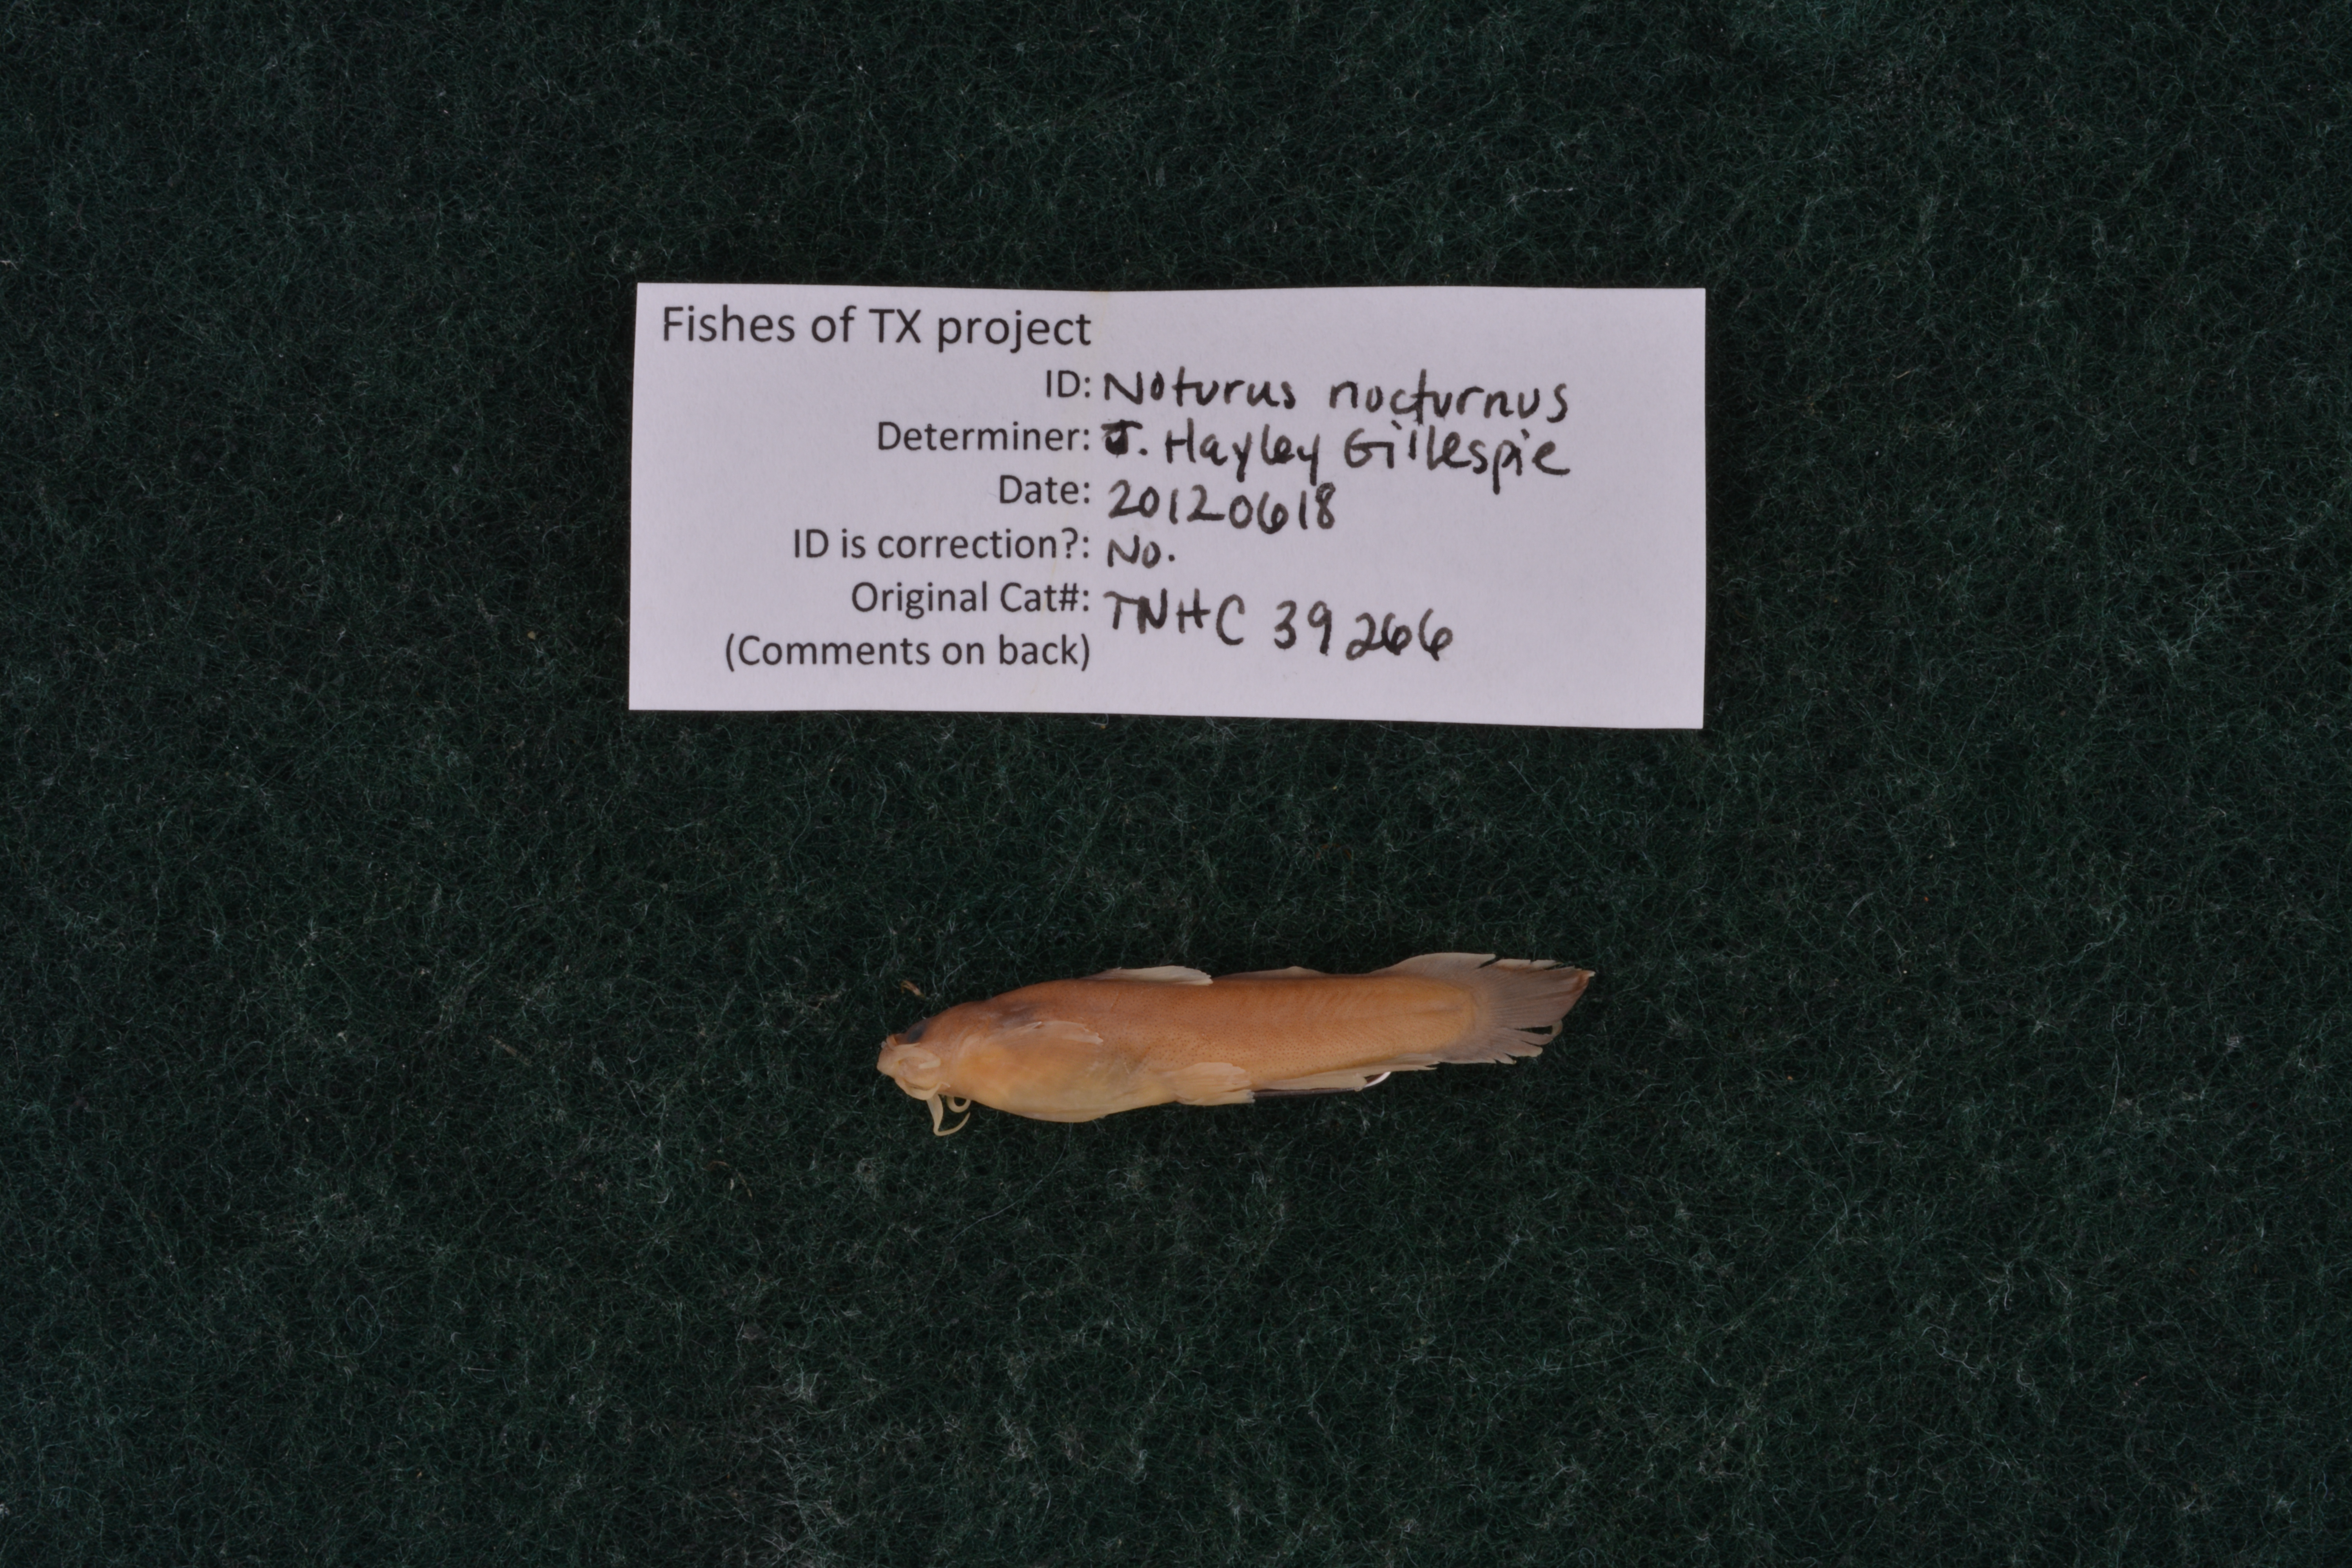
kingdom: Animalia
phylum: Chordata
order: Siluriformes
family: Ictaluridae
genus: Noturus
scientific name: Noturus nocturnus
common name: Freckled madtom
